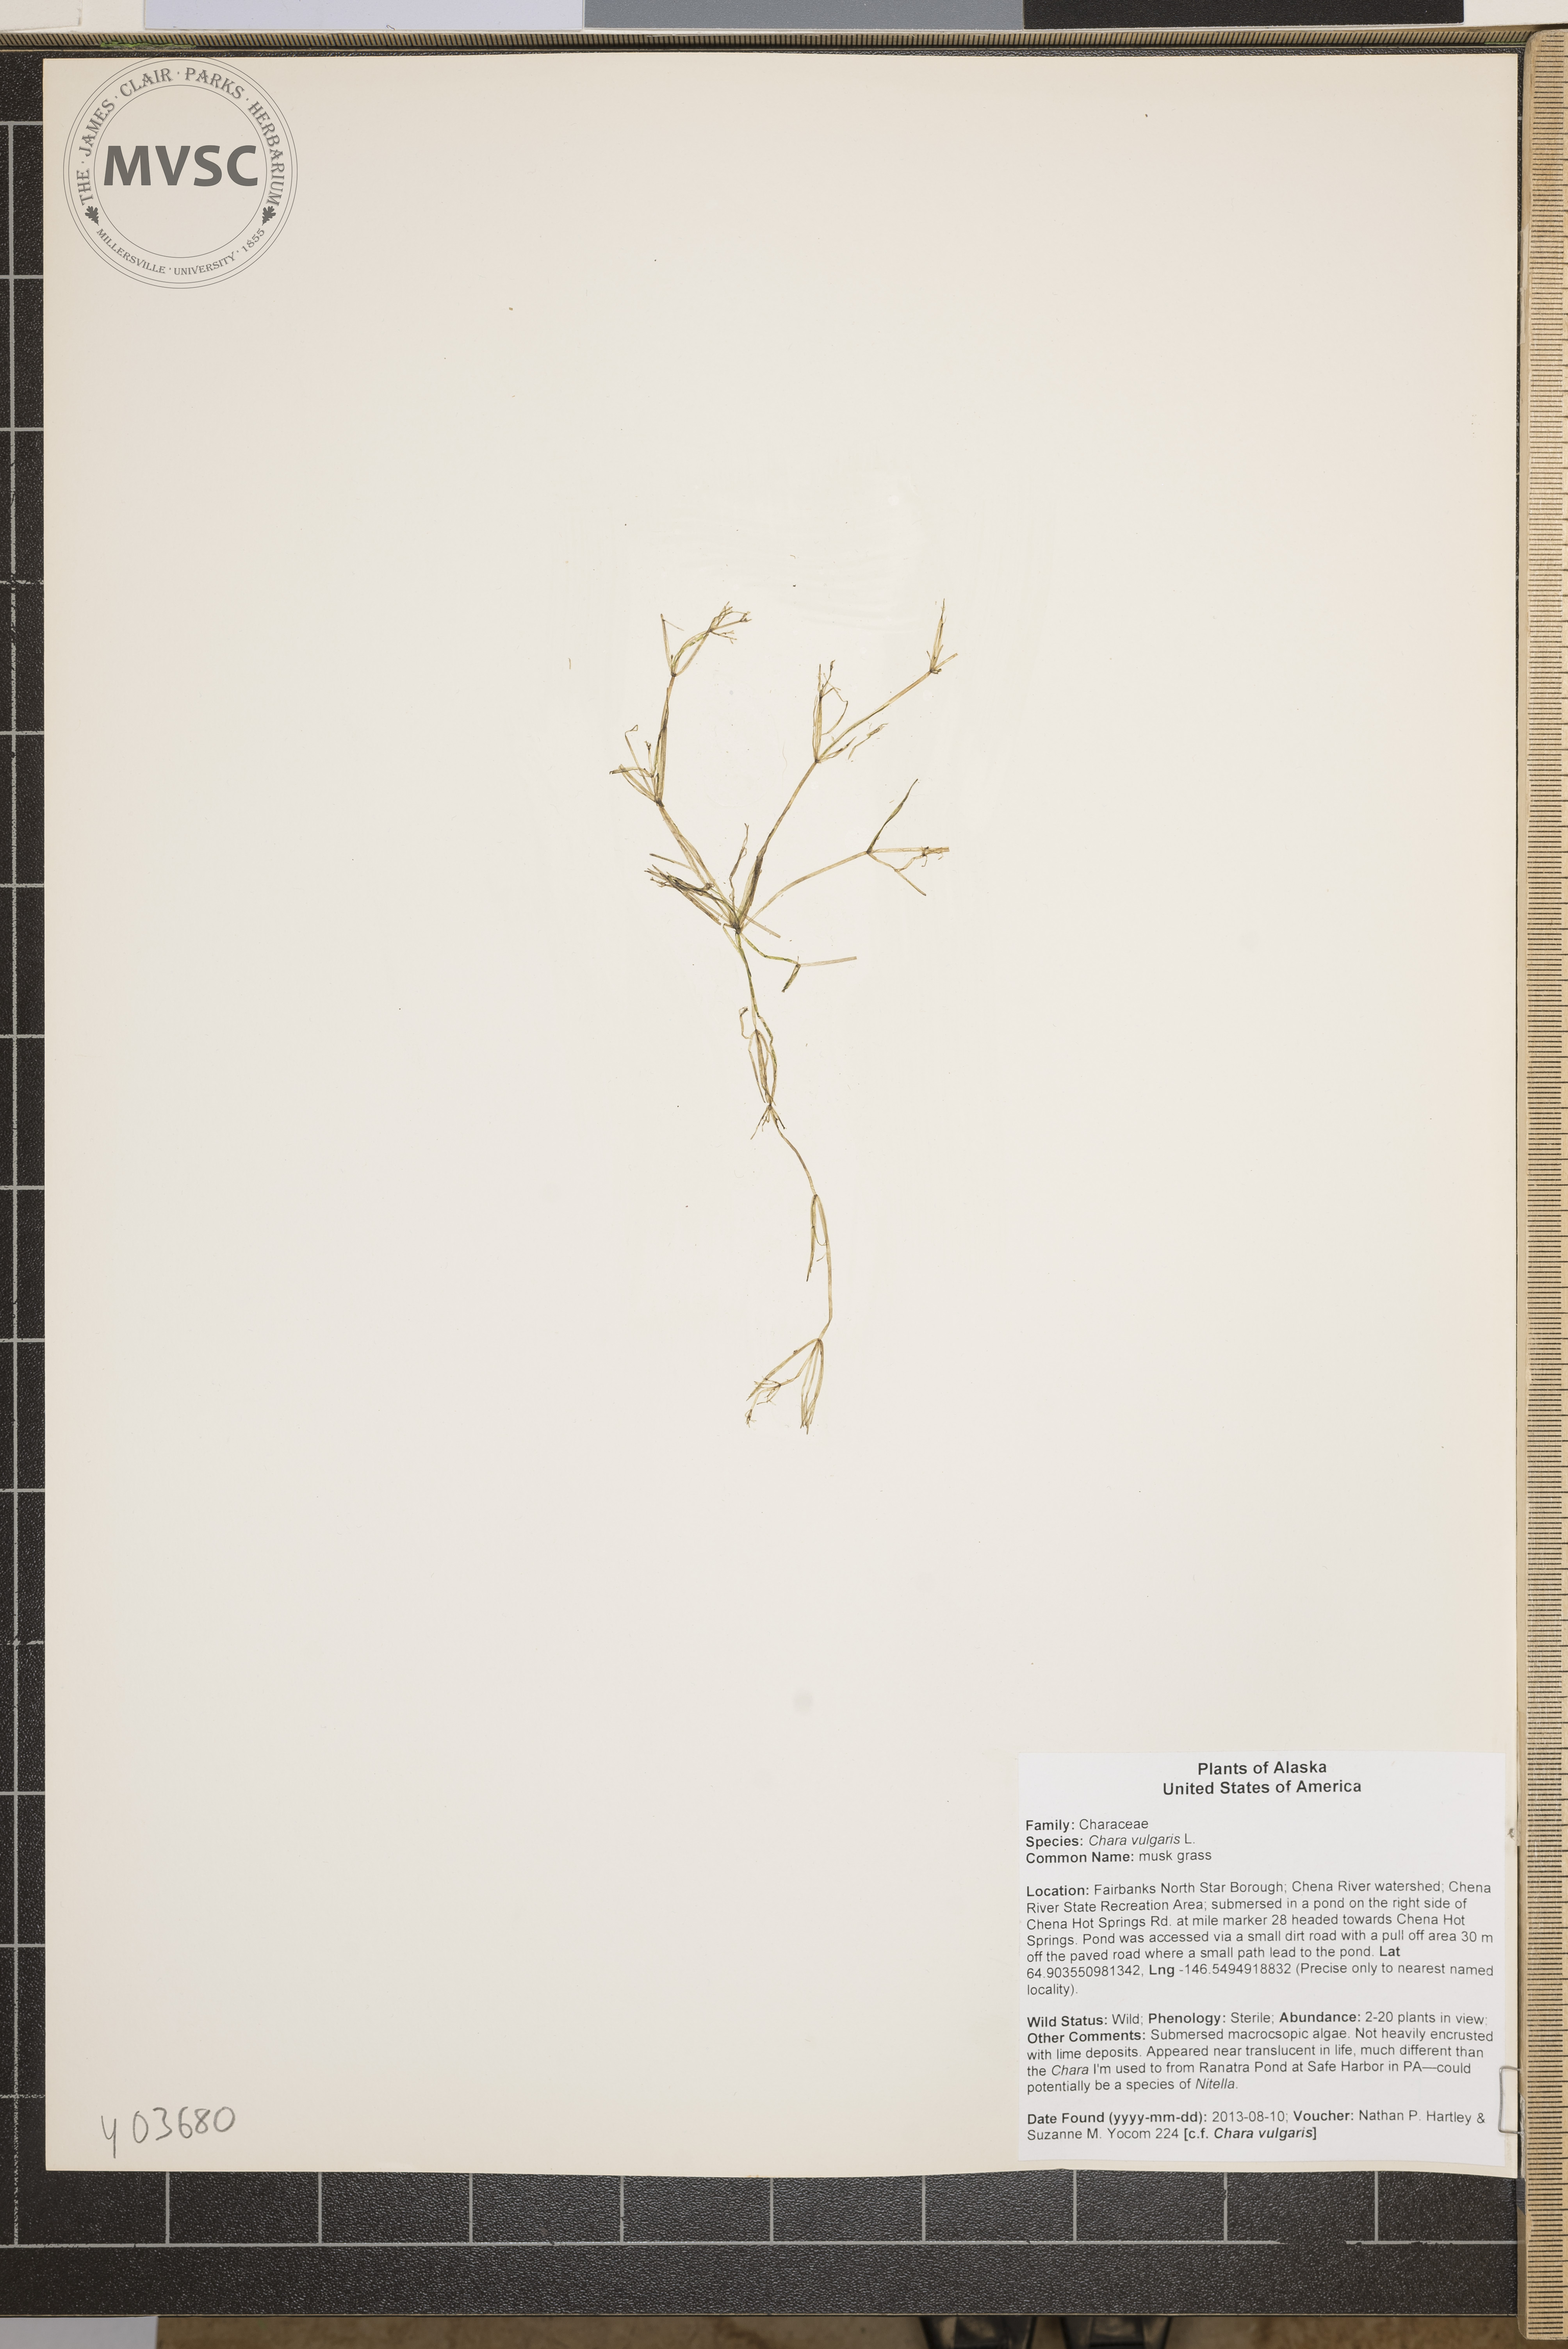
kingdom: Plantae
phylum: Charophyta
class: Charophyceae
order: Charales
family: Characeae
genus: Chara
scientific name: Chara vulgaris
